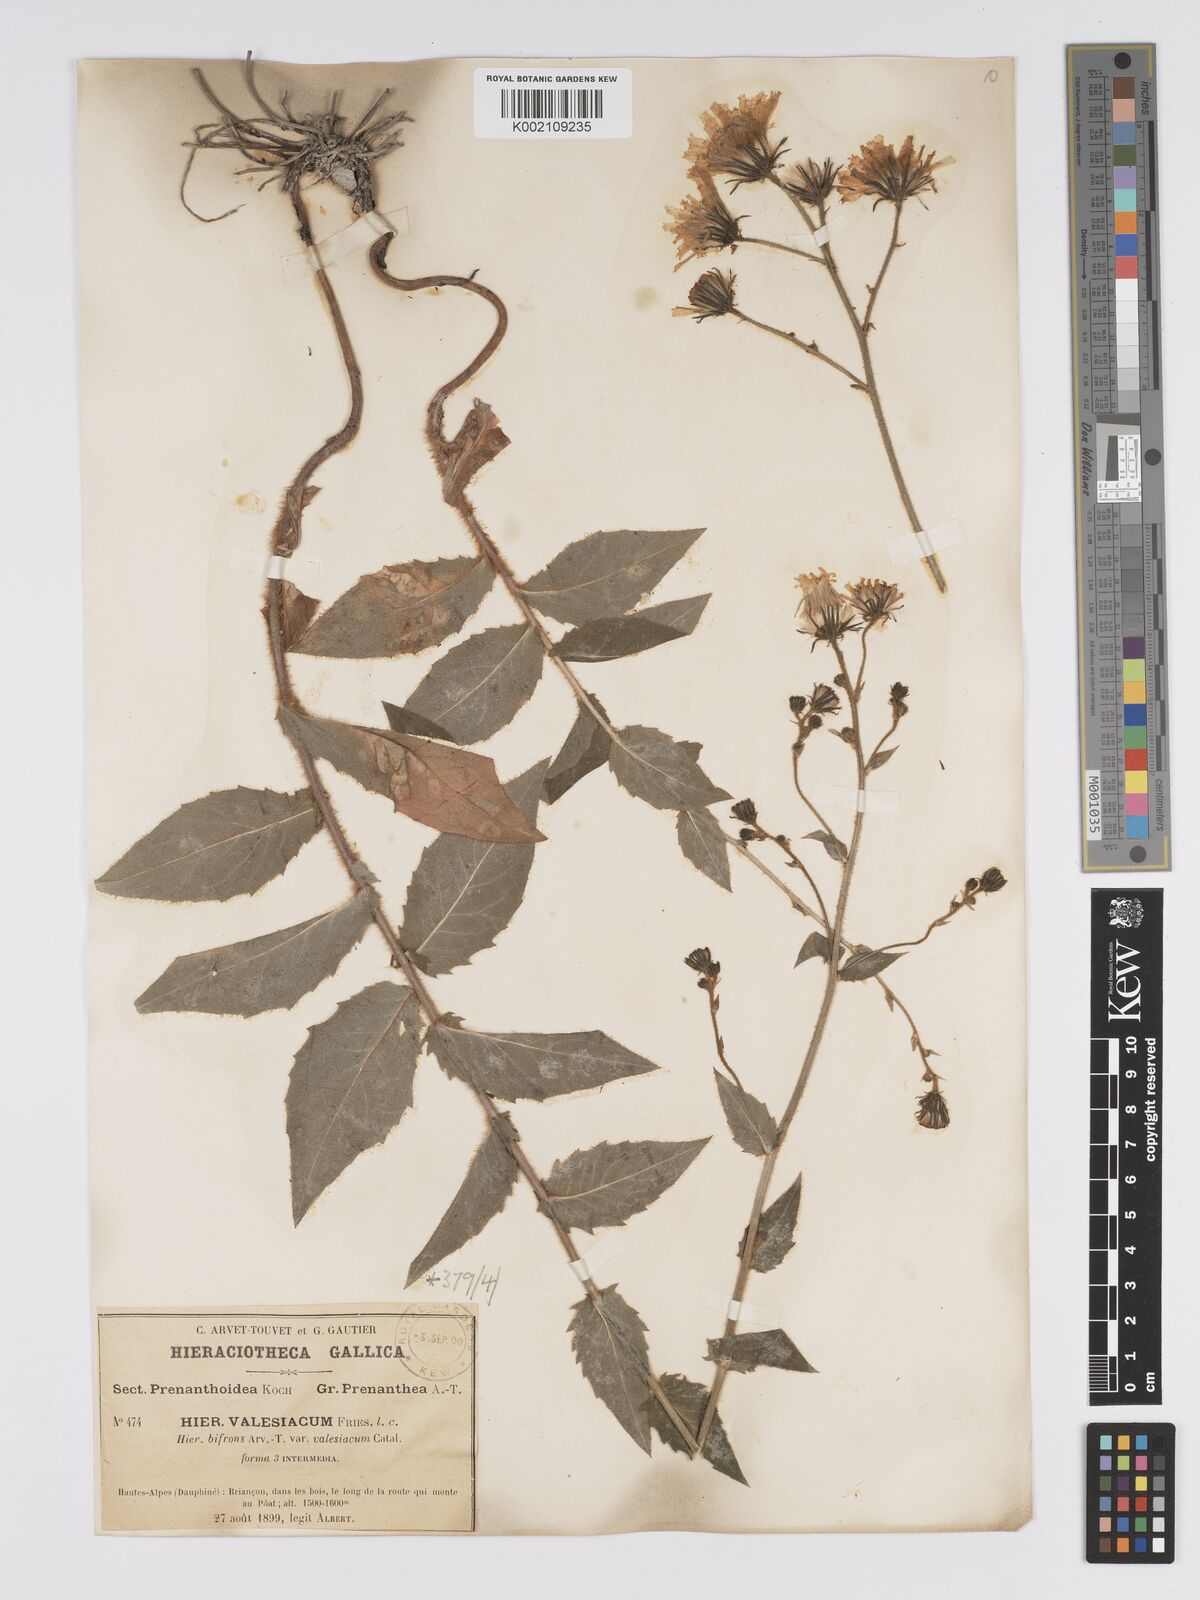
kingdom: Plantae
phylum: Tracheophyta
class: Magnoliopsida
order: Asterales
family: Asteraceae
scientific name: Asteraceae
